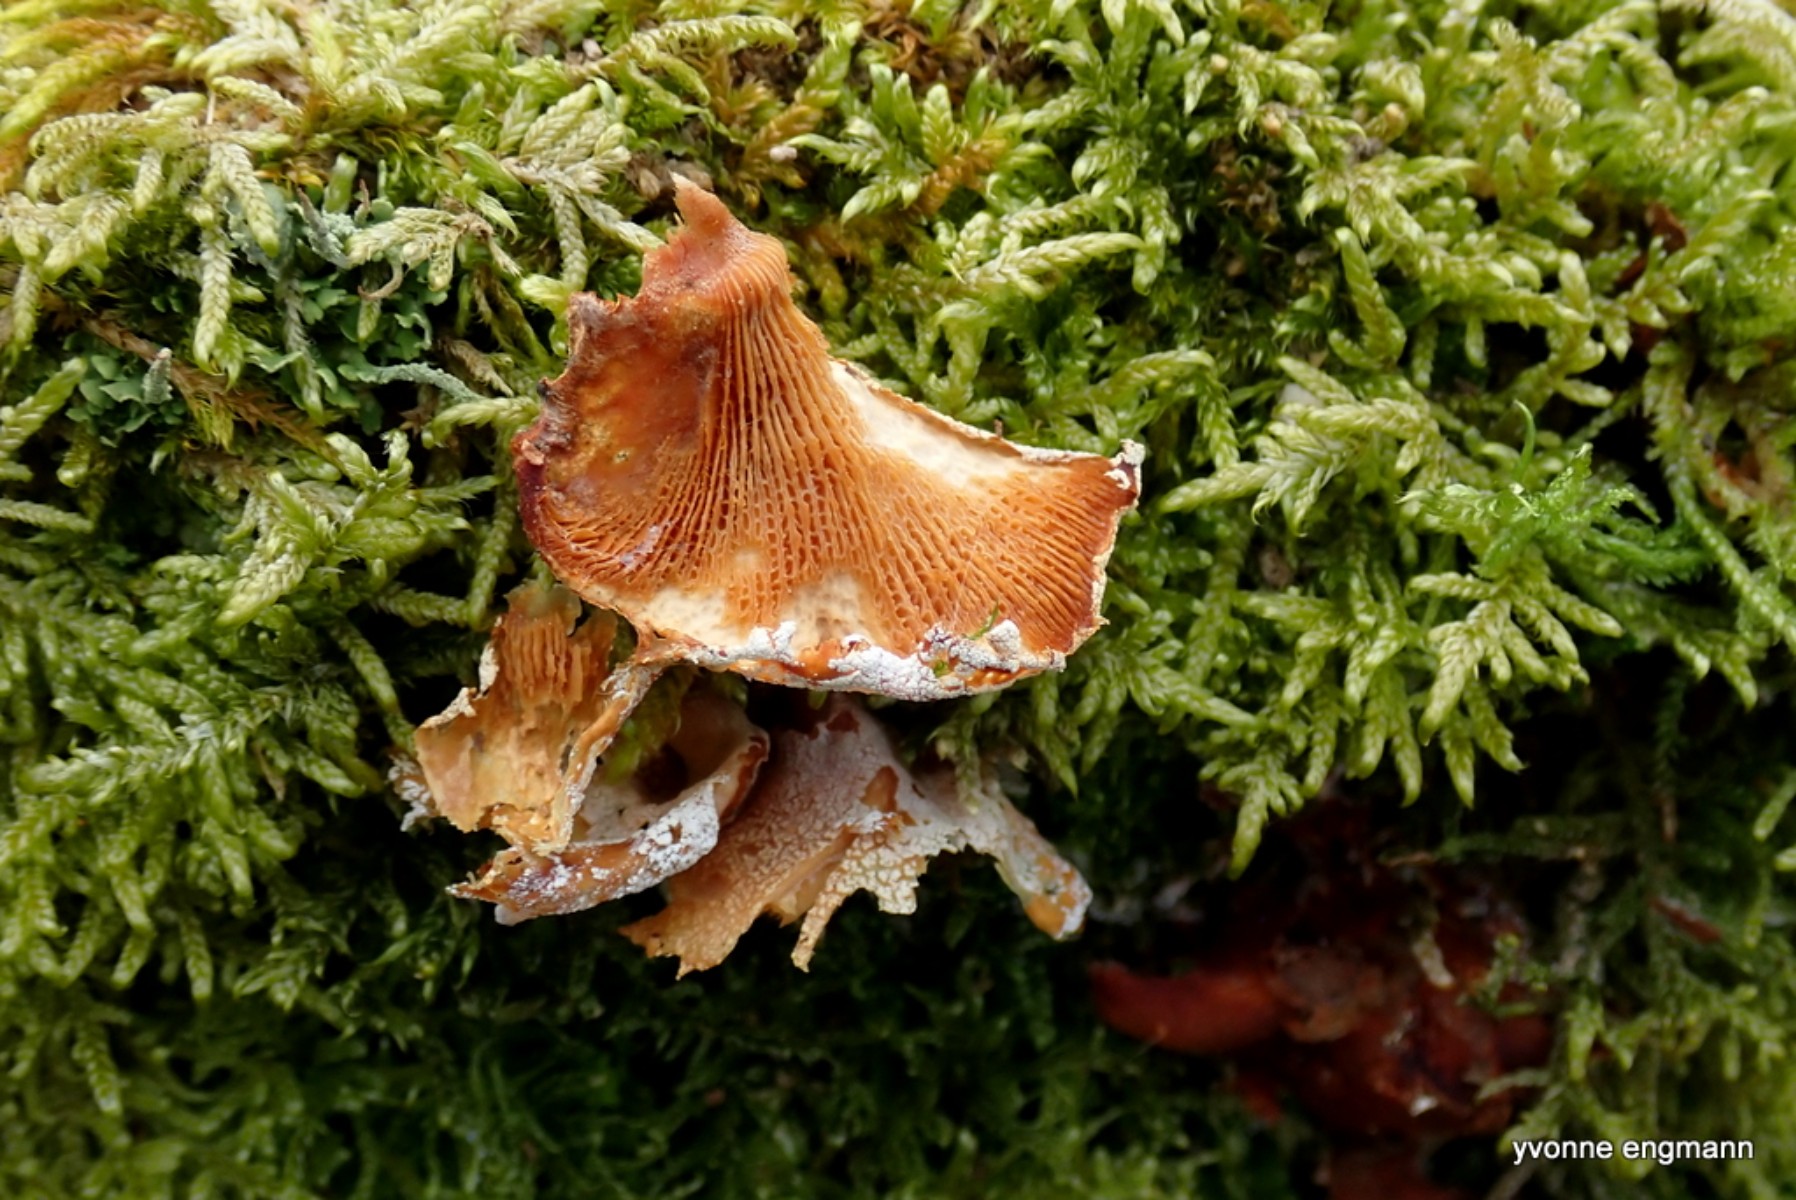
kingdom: Fungi
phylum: Basidiomycota
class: Agaricomycetes
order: Agaricales
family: Mycenaceae
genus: Panellus
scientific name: Panellus stipticus
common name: kliddet epaulethat
